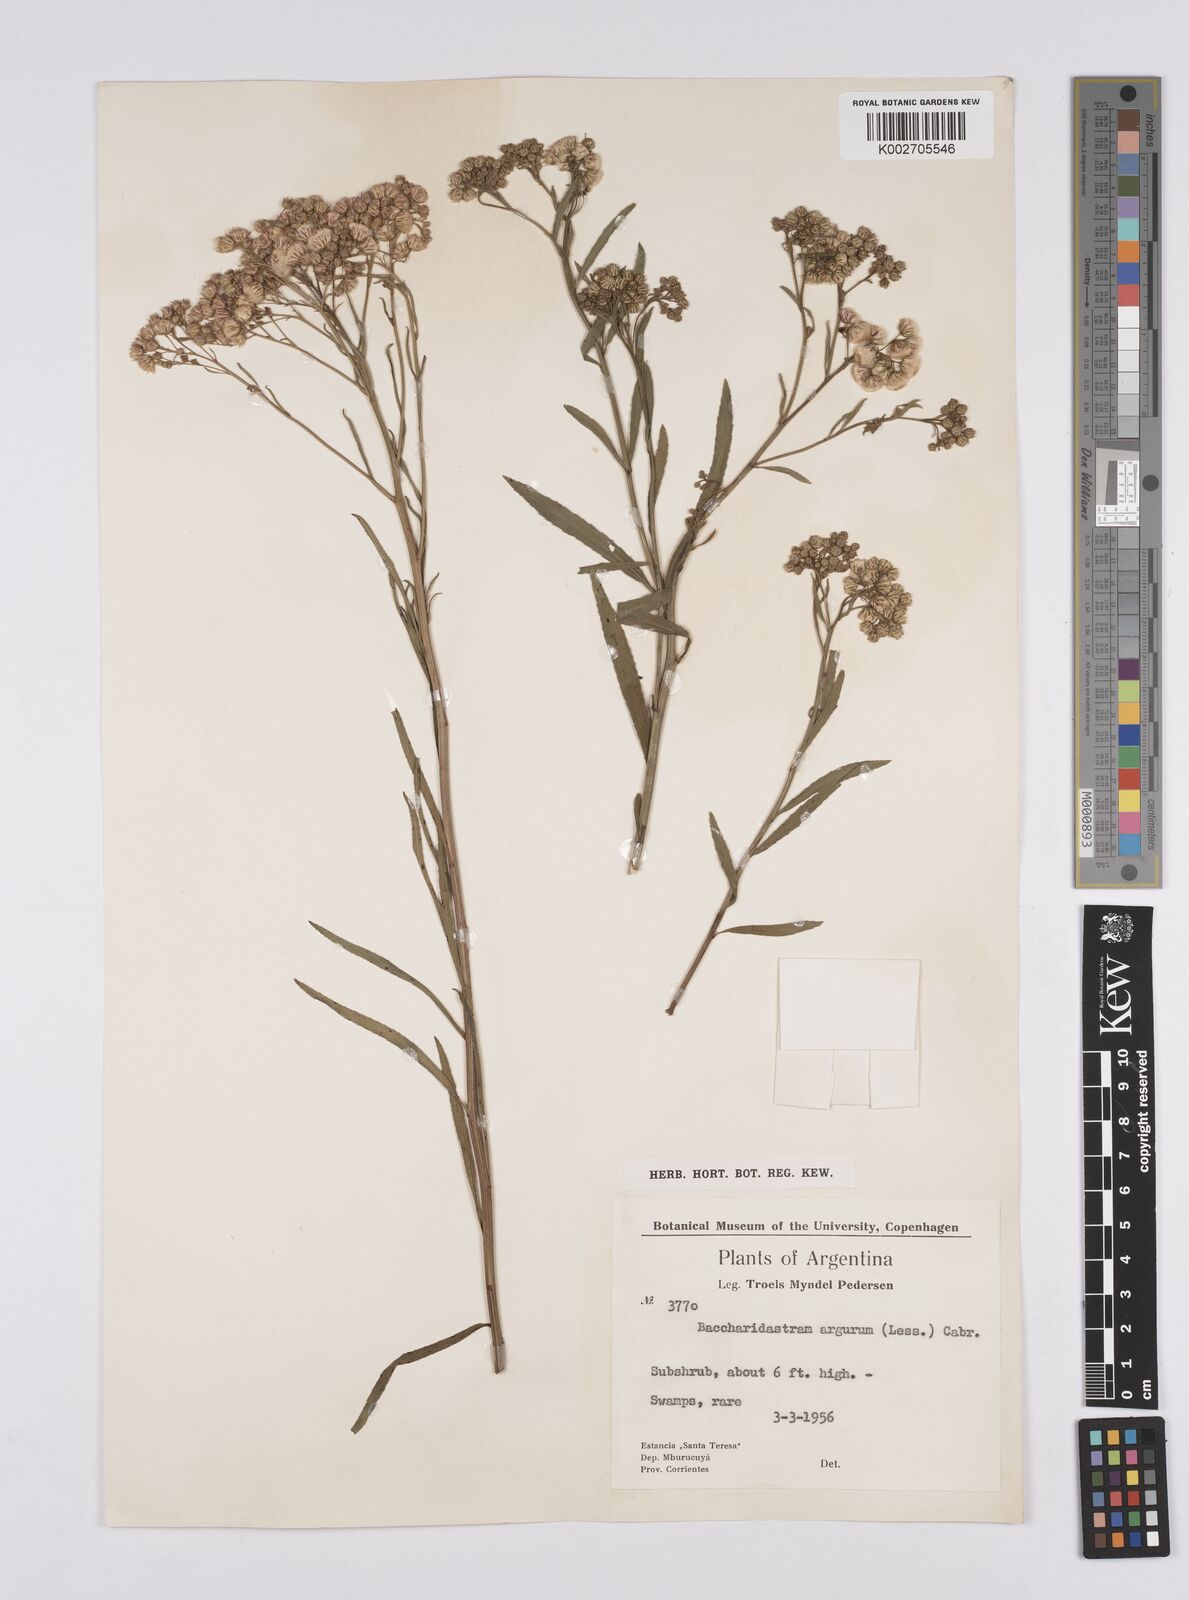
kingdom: Plantae
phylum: Tracheophyta
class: Magnoliopsida
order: Asterales
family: Asteraceae
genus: Baccharis
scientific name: Baccharis breviseta
